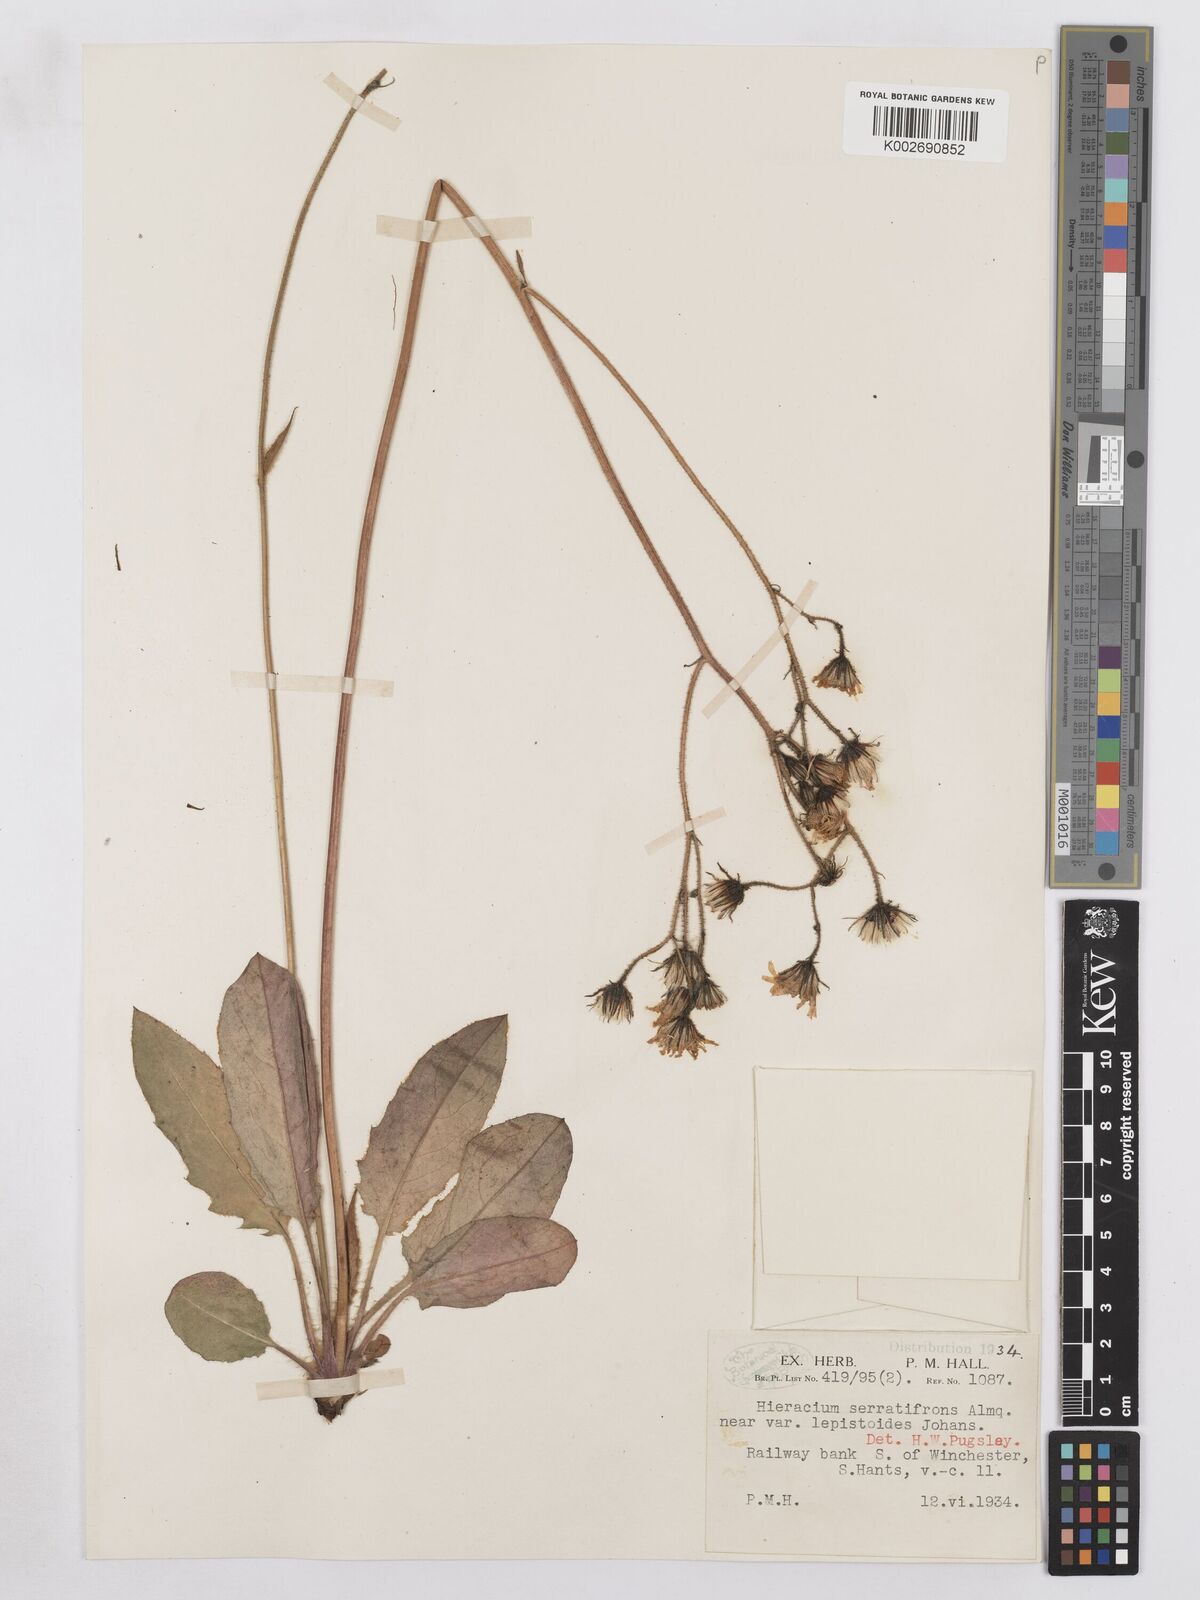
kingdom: Plantae
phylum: Tracheophyta
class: Magnoliopsida
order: Asterales
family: Asteraceae
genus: Hieracium
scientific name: Hieracium murorum
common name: Wall hawkweed
